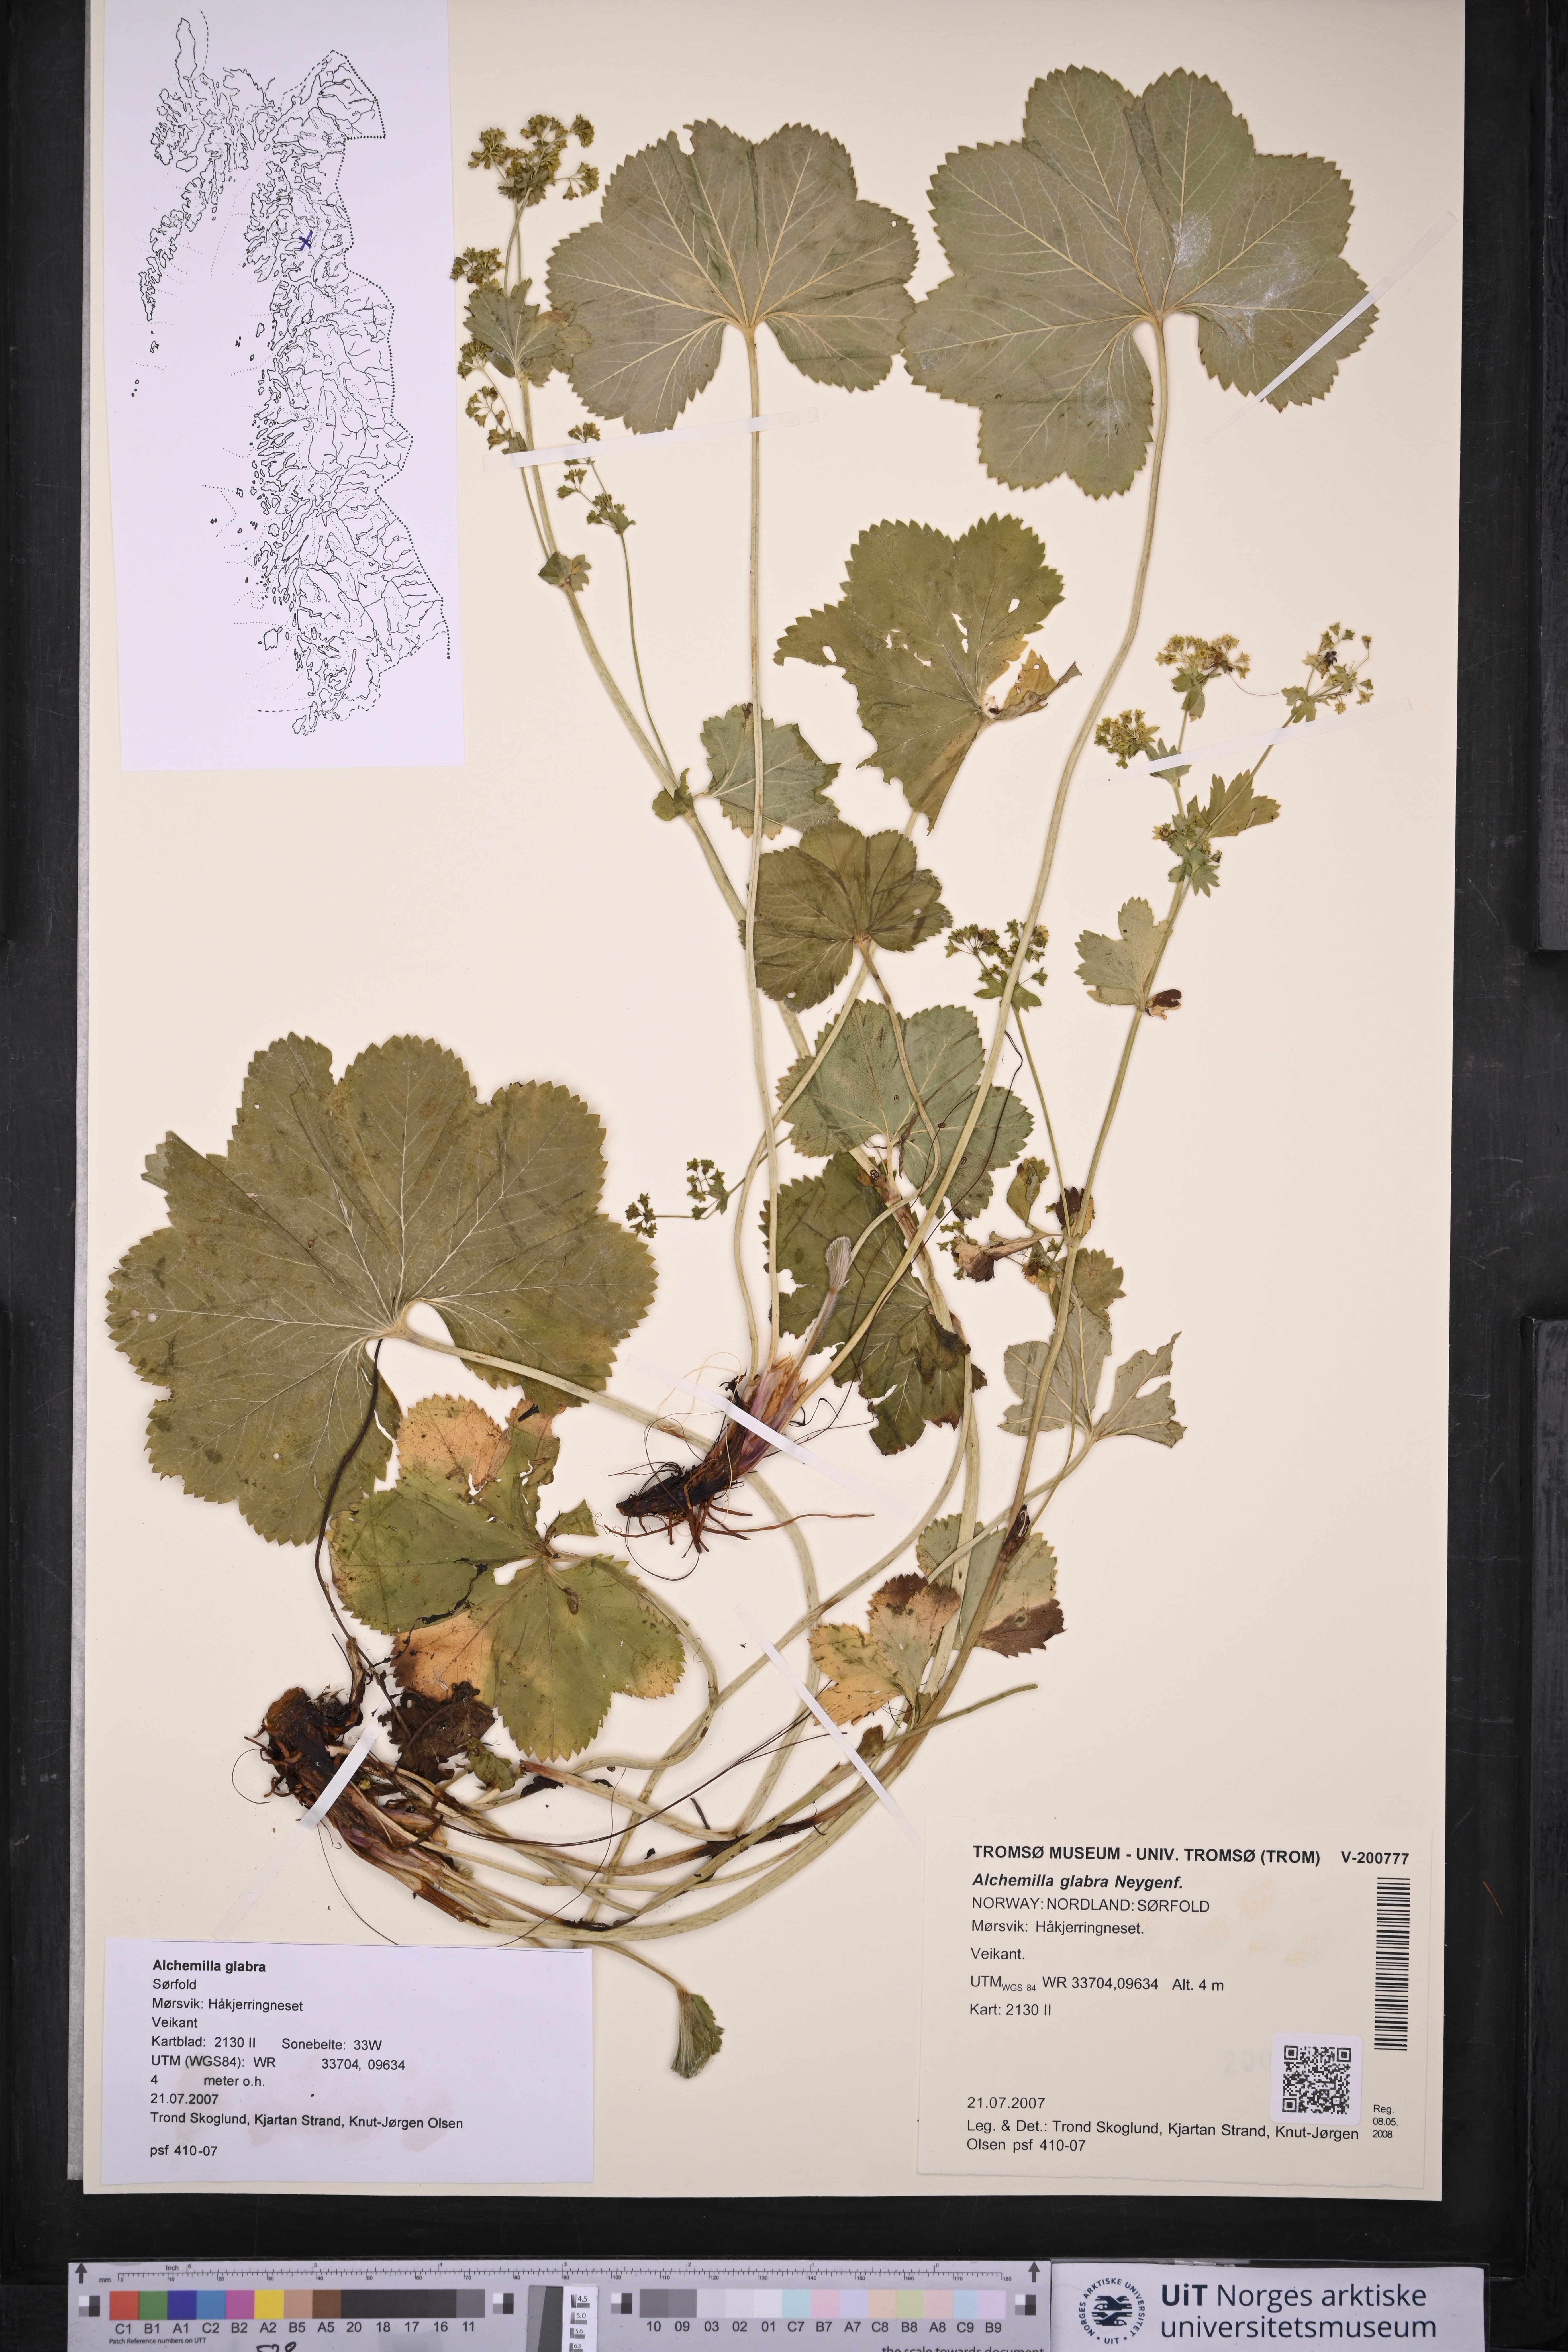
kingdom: Plantae
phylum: Tracheophyta
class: Magnoliopsida
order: Rosales
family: Rosaceae
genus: Alchemilla
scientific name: Alchemilla glabra
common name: Smooth lady's-mantle
